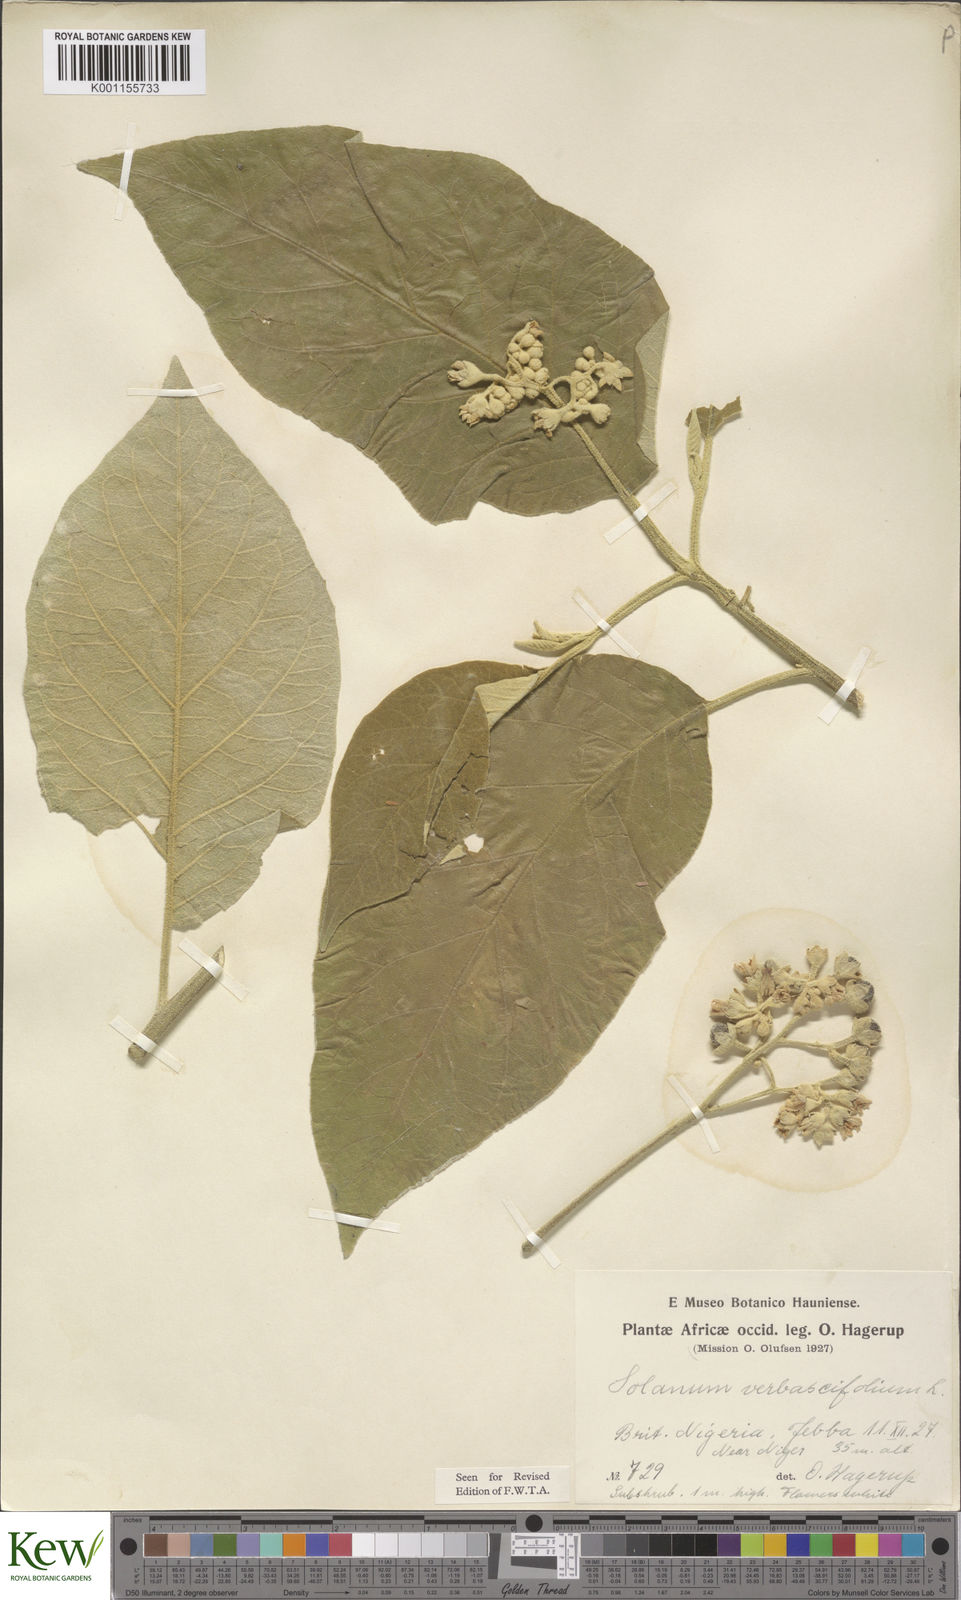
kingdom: Plantae
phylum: Tracheophyta
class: Magnoliopsida
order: Solanales
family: Solanaceae
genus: Solanum
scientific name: Solanum erianthum
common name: Tobacco-tree
